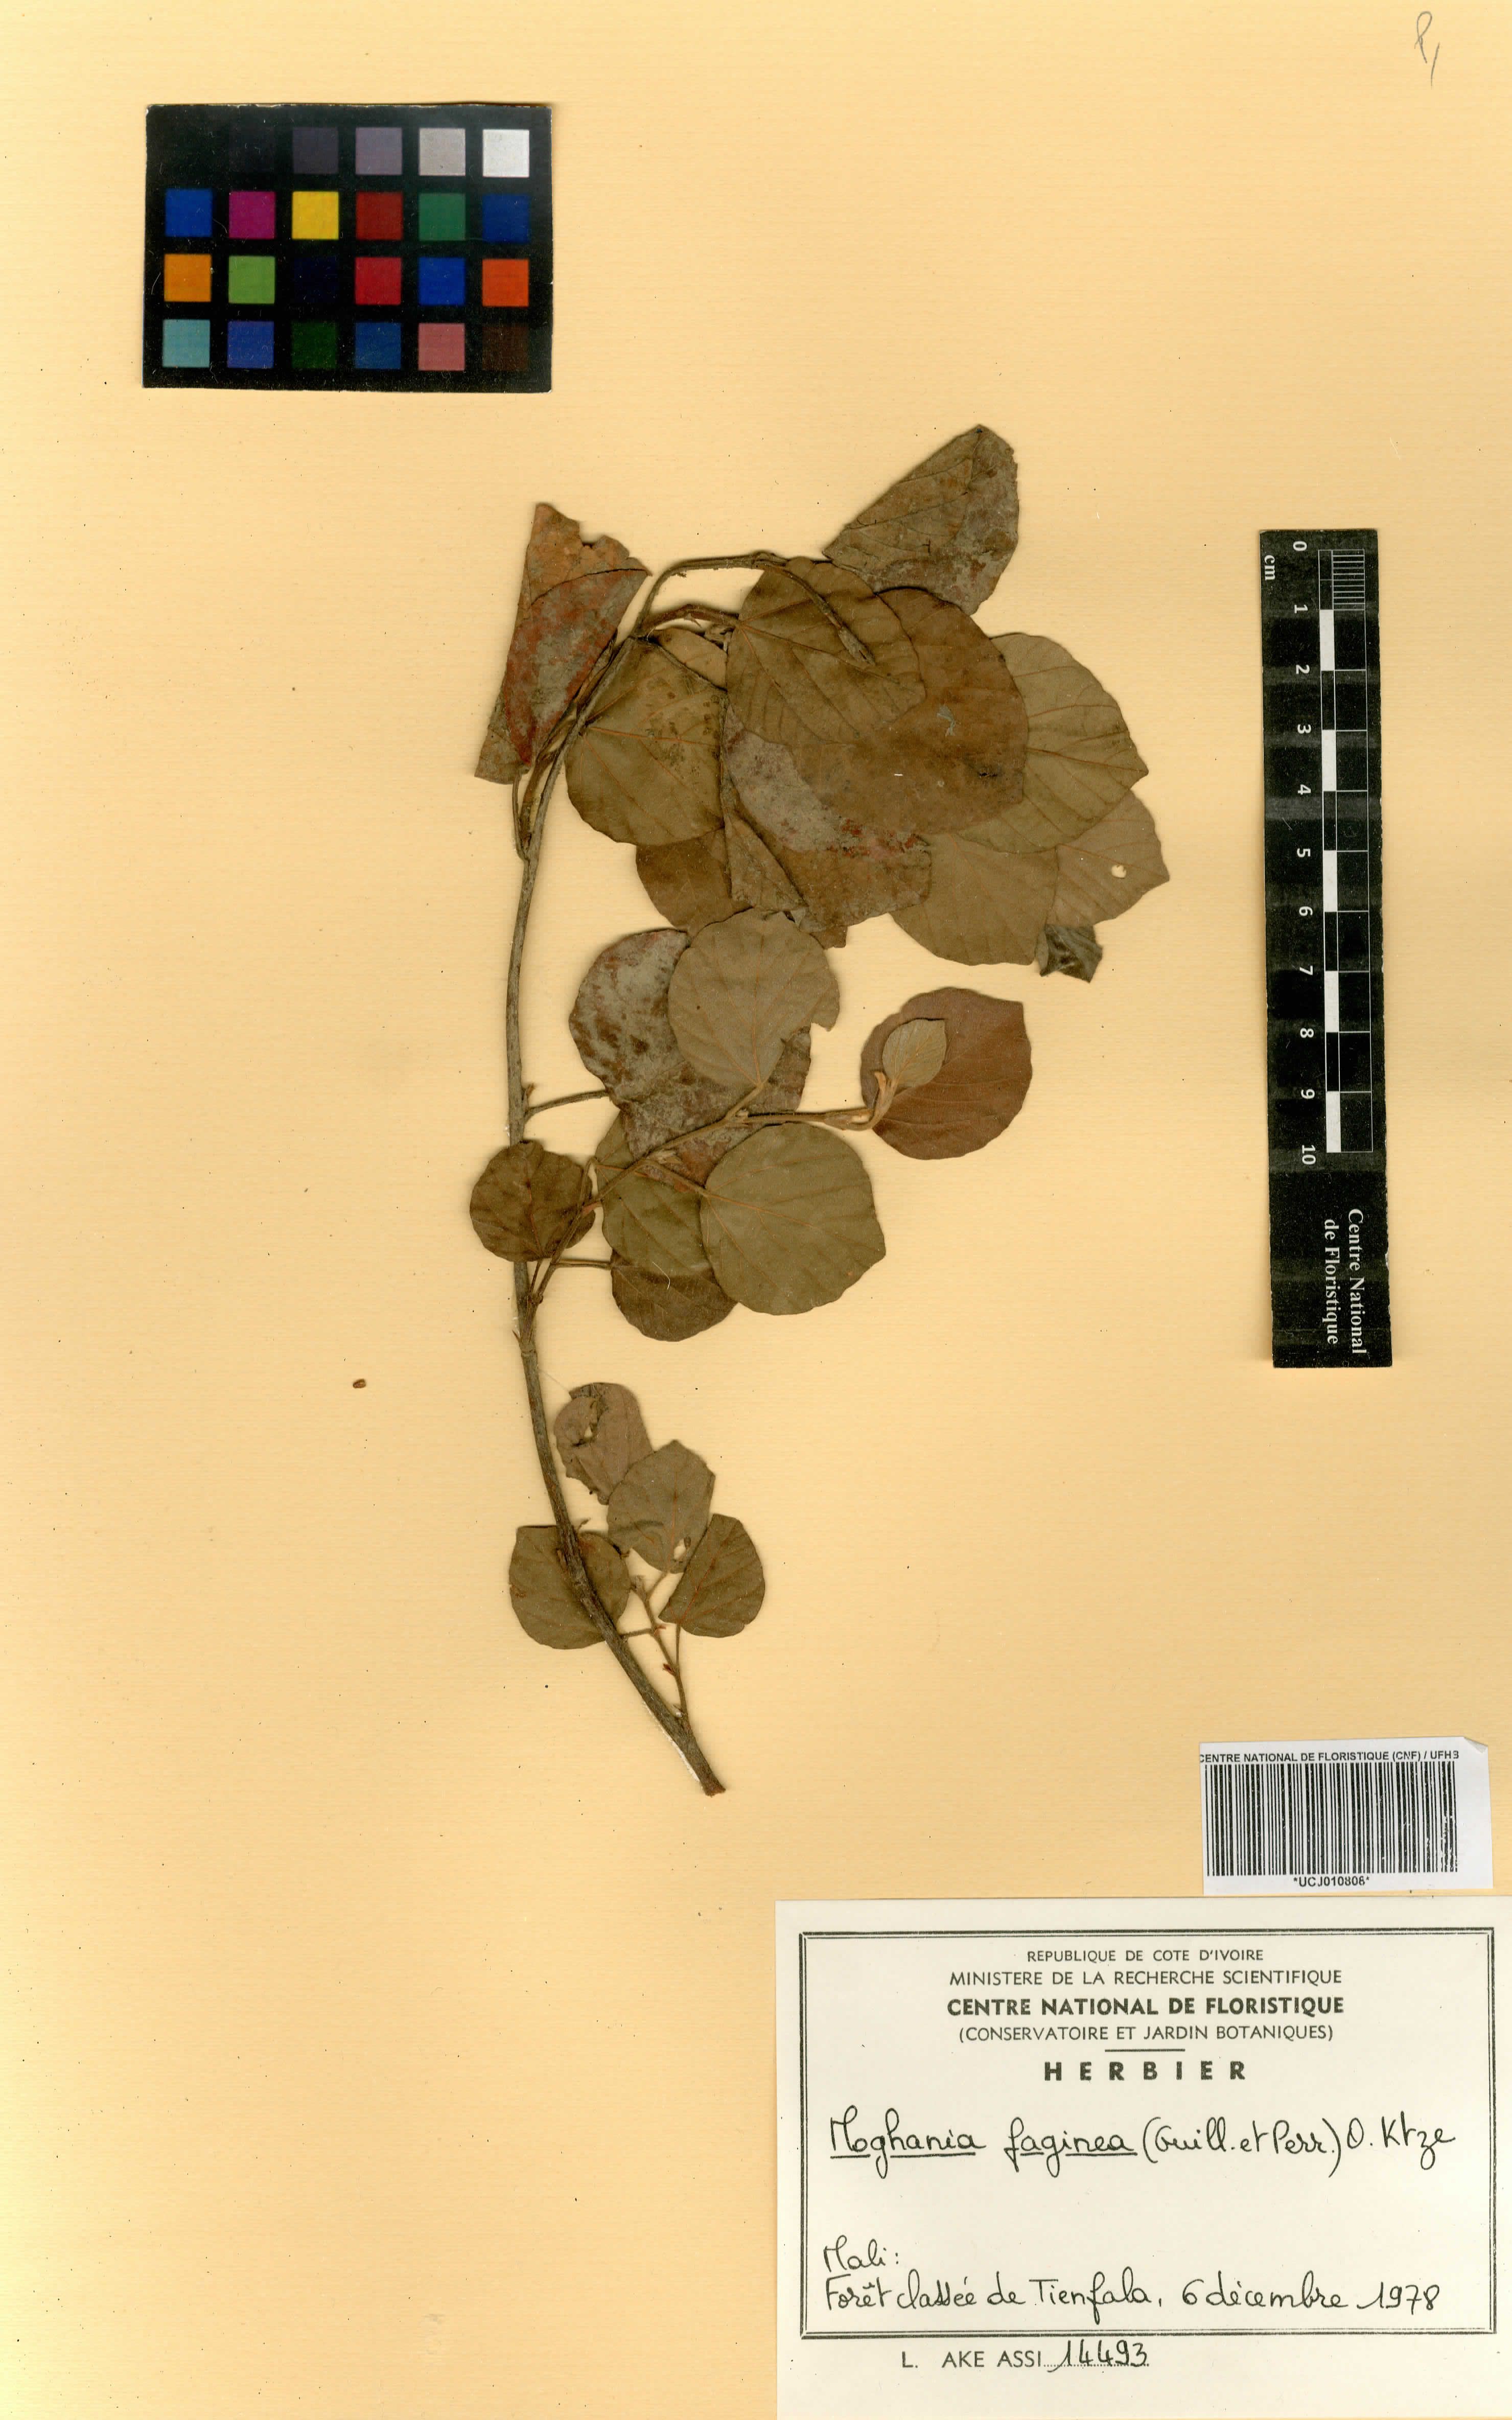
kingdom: Plantae
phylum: Tracheophyta
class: Magnoliopsida
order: Fabales
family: Fabaceae
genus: Flemingia
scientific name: Flemingia faginea
